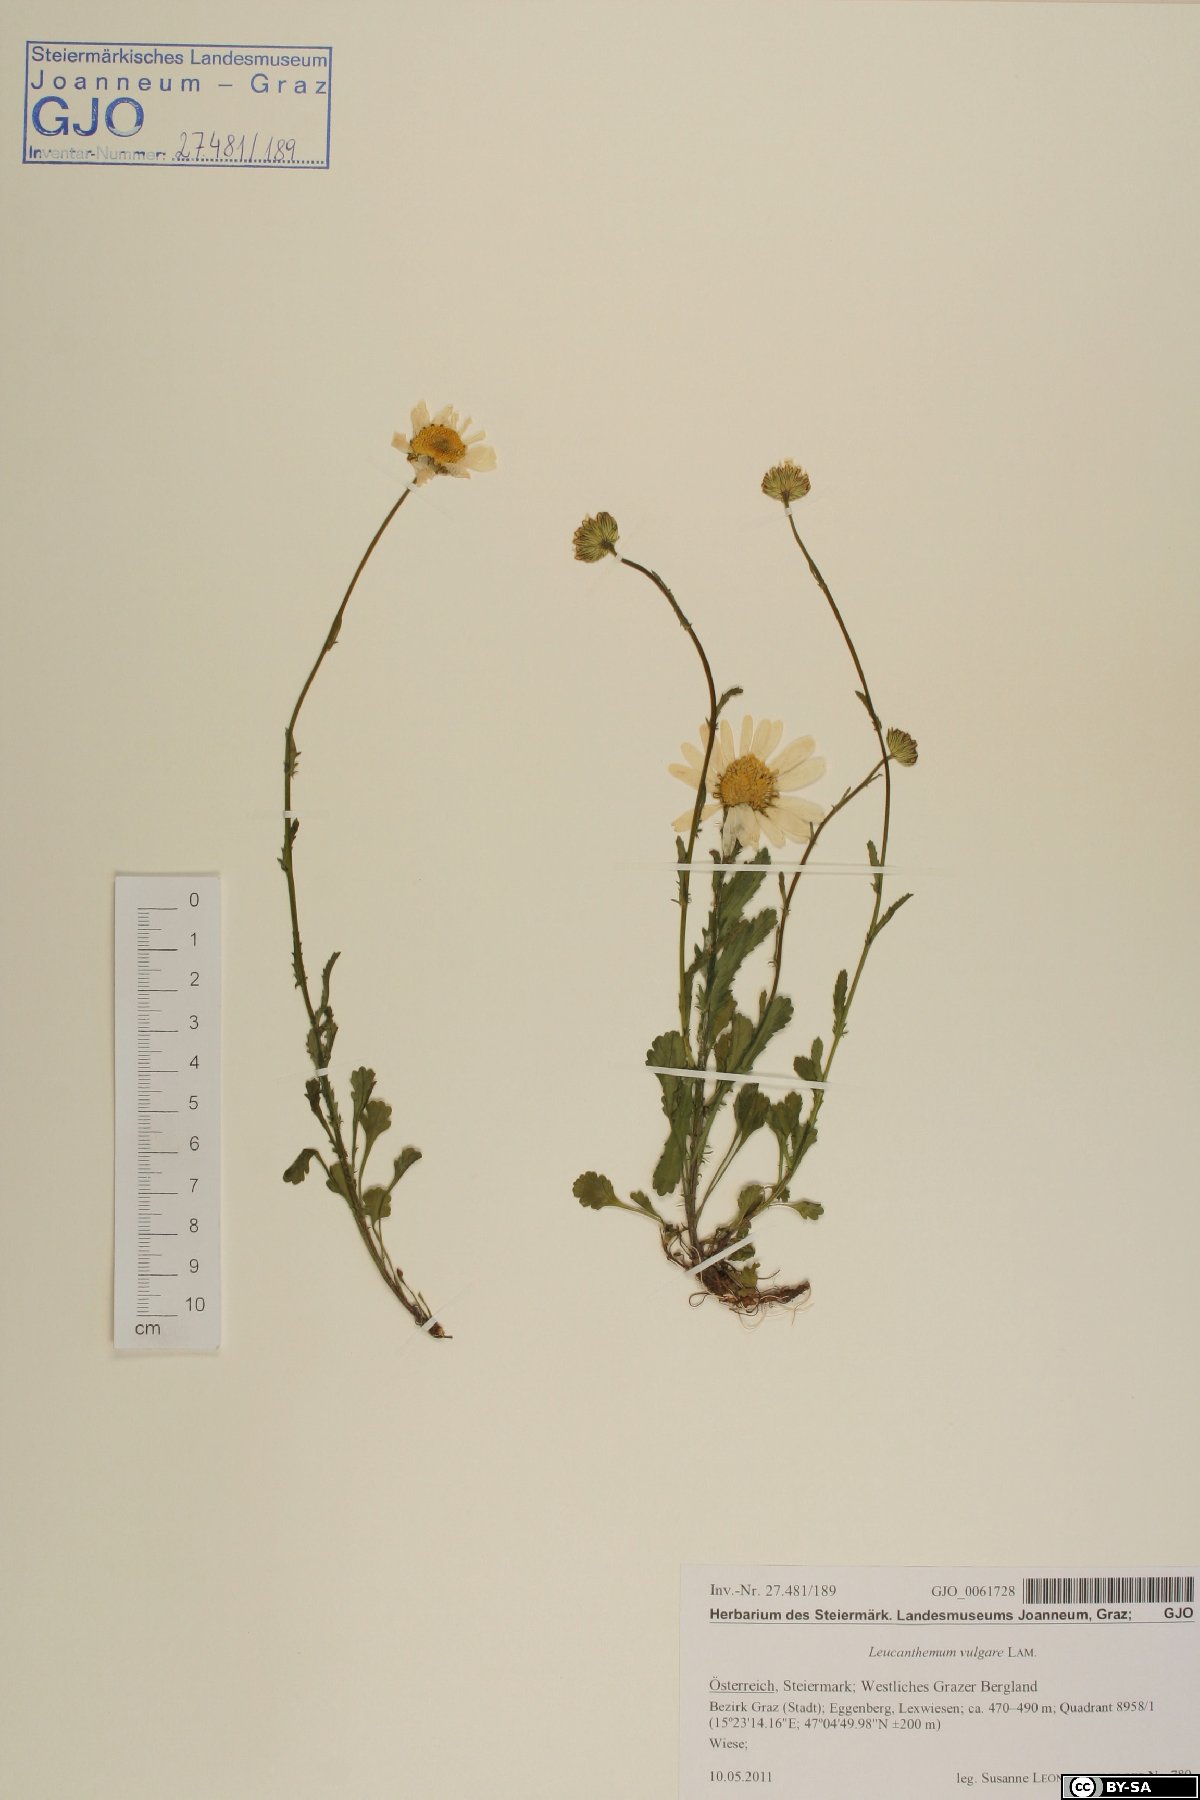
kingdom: Plantae
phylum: Tracheophyta
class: Magnoliopsida
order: Asterales
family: Asteraceae
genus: Leucanthemum
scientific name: Leucanthemum vulgare
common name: Oxeye daisy
